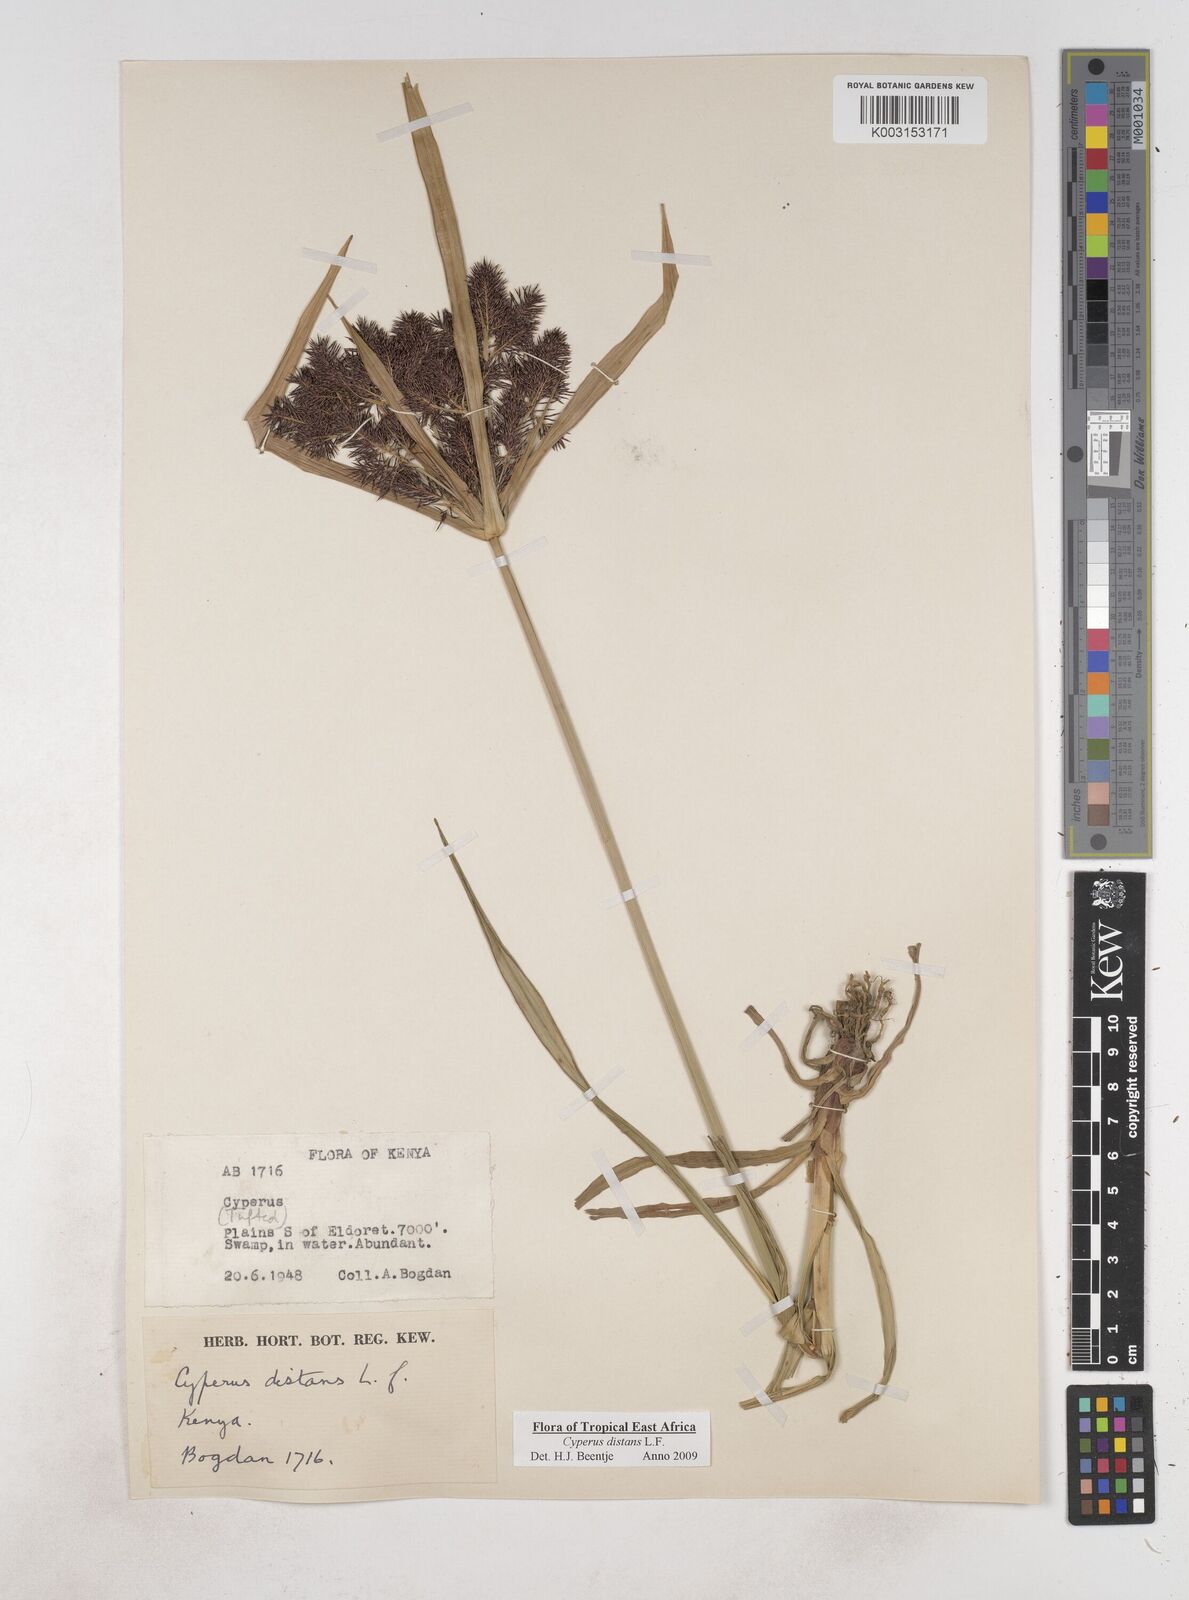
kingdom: Plantae
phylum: Tracheophyta
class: Liliopsida
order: Poales
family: Cyperaceae
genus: Cyperus
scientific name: Cyperus distans
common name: Slender cyperus
